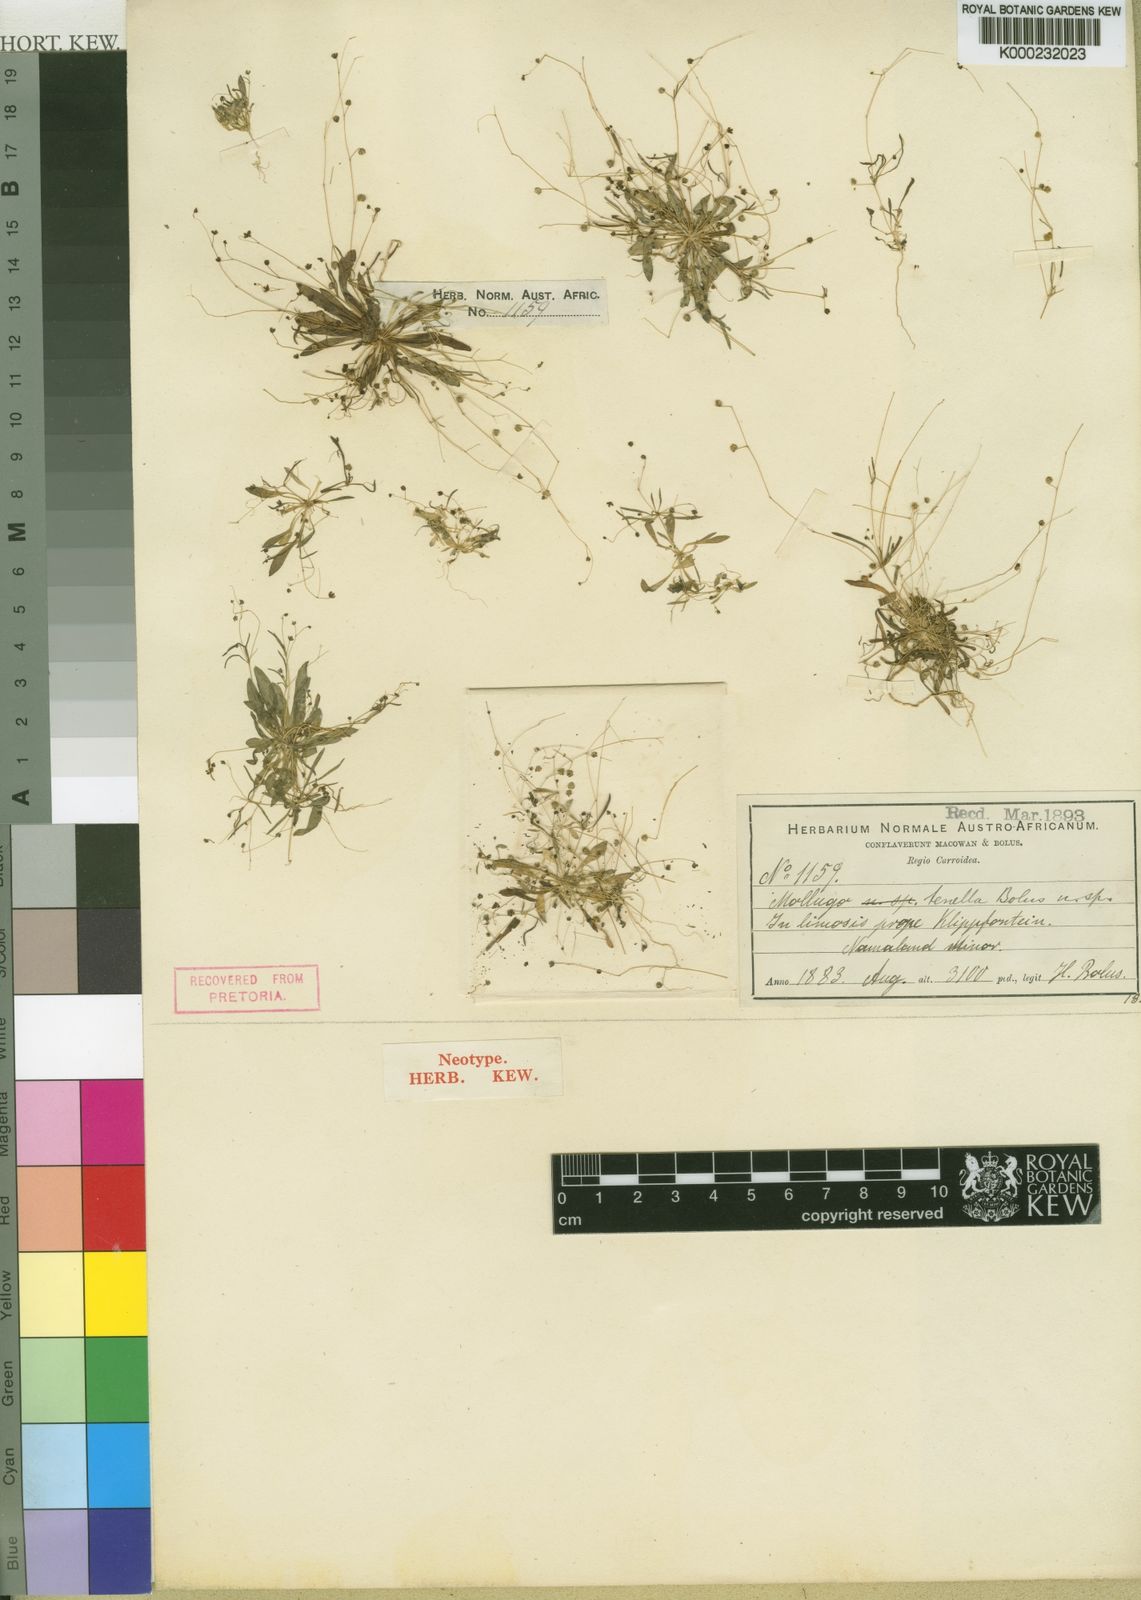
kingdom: Plantae
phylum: Tracheophyta
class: Magnoliopsida
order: Caryophyllales
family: Molluginaceae
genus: Pharnaceum
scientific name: Pharnaceum subtile
